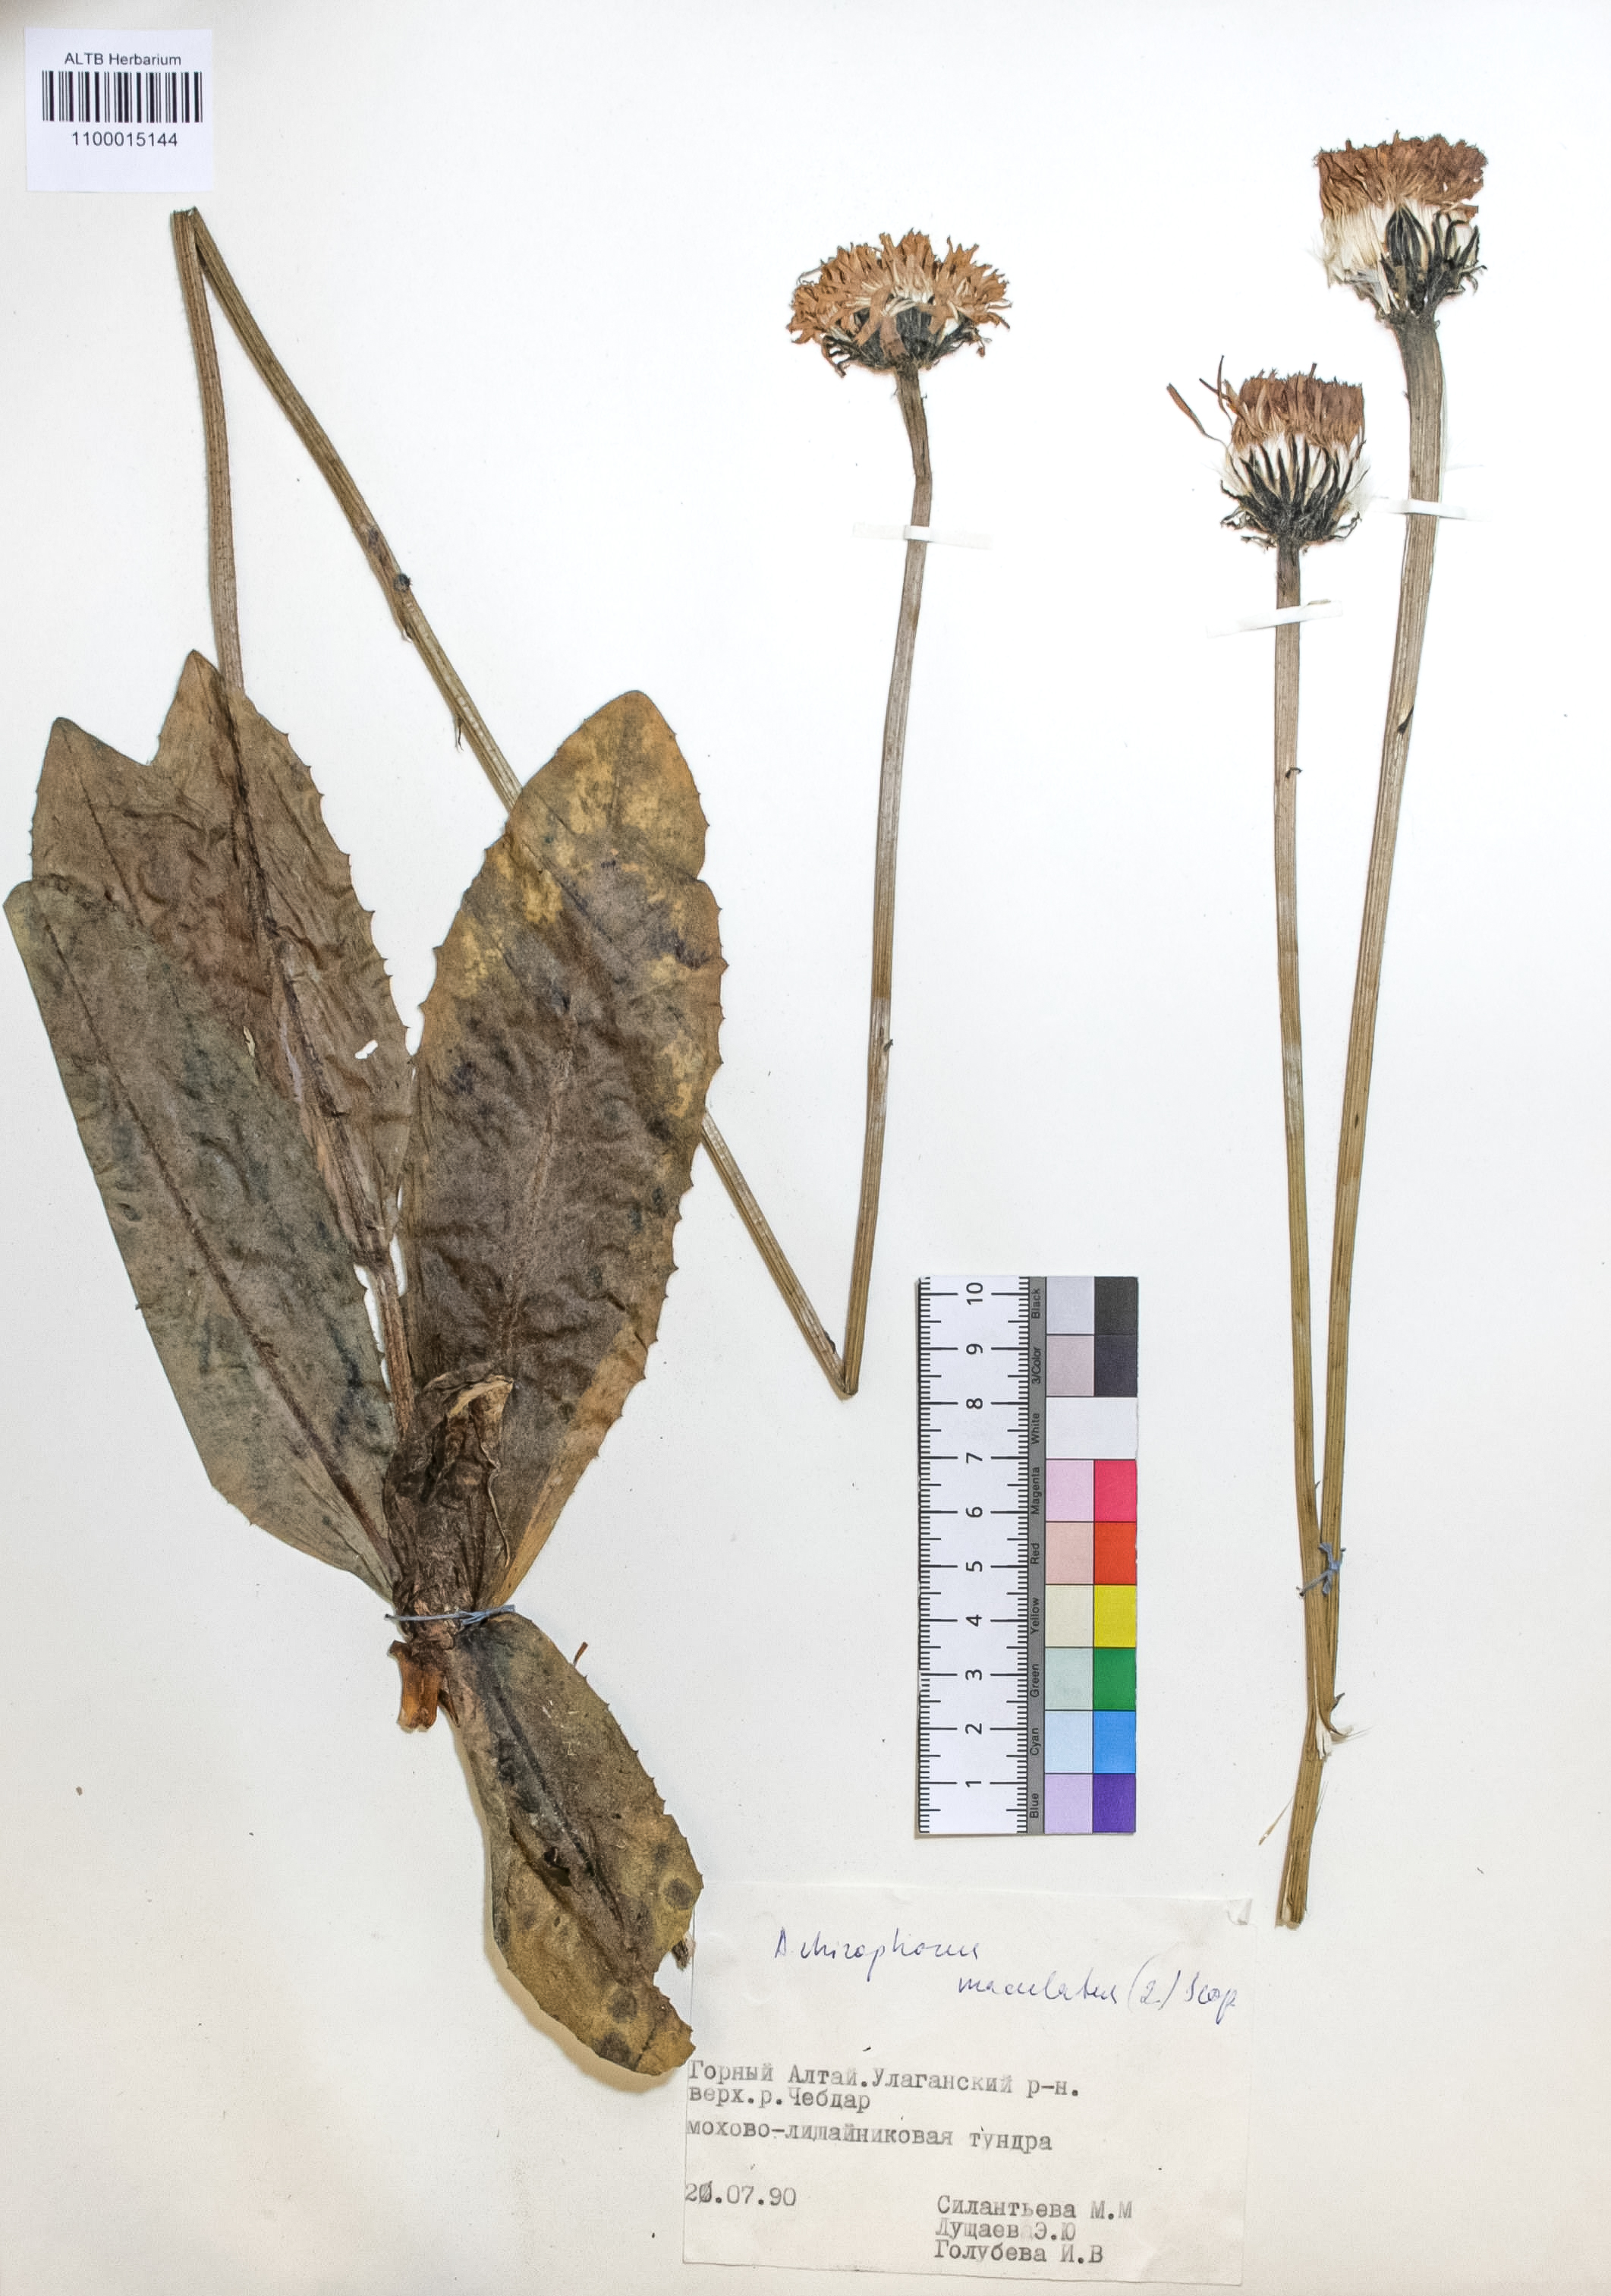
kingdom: Plantae
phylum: Tracheophyta
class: Magnoliopsida
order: Asterales
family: Asteraceae
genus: Trommsdorffia
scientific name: Trommsdorffia maculata
